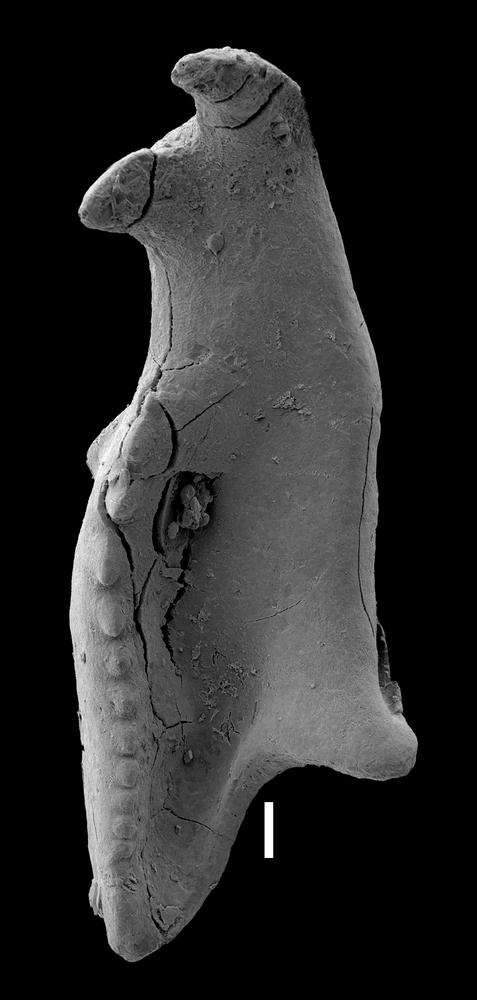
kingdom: Animalia
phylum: Annelida
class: Polychaeta
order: Eunicida
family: Ramphoprionidae
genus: Protarabellites
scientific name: Protarabellites triangularis
